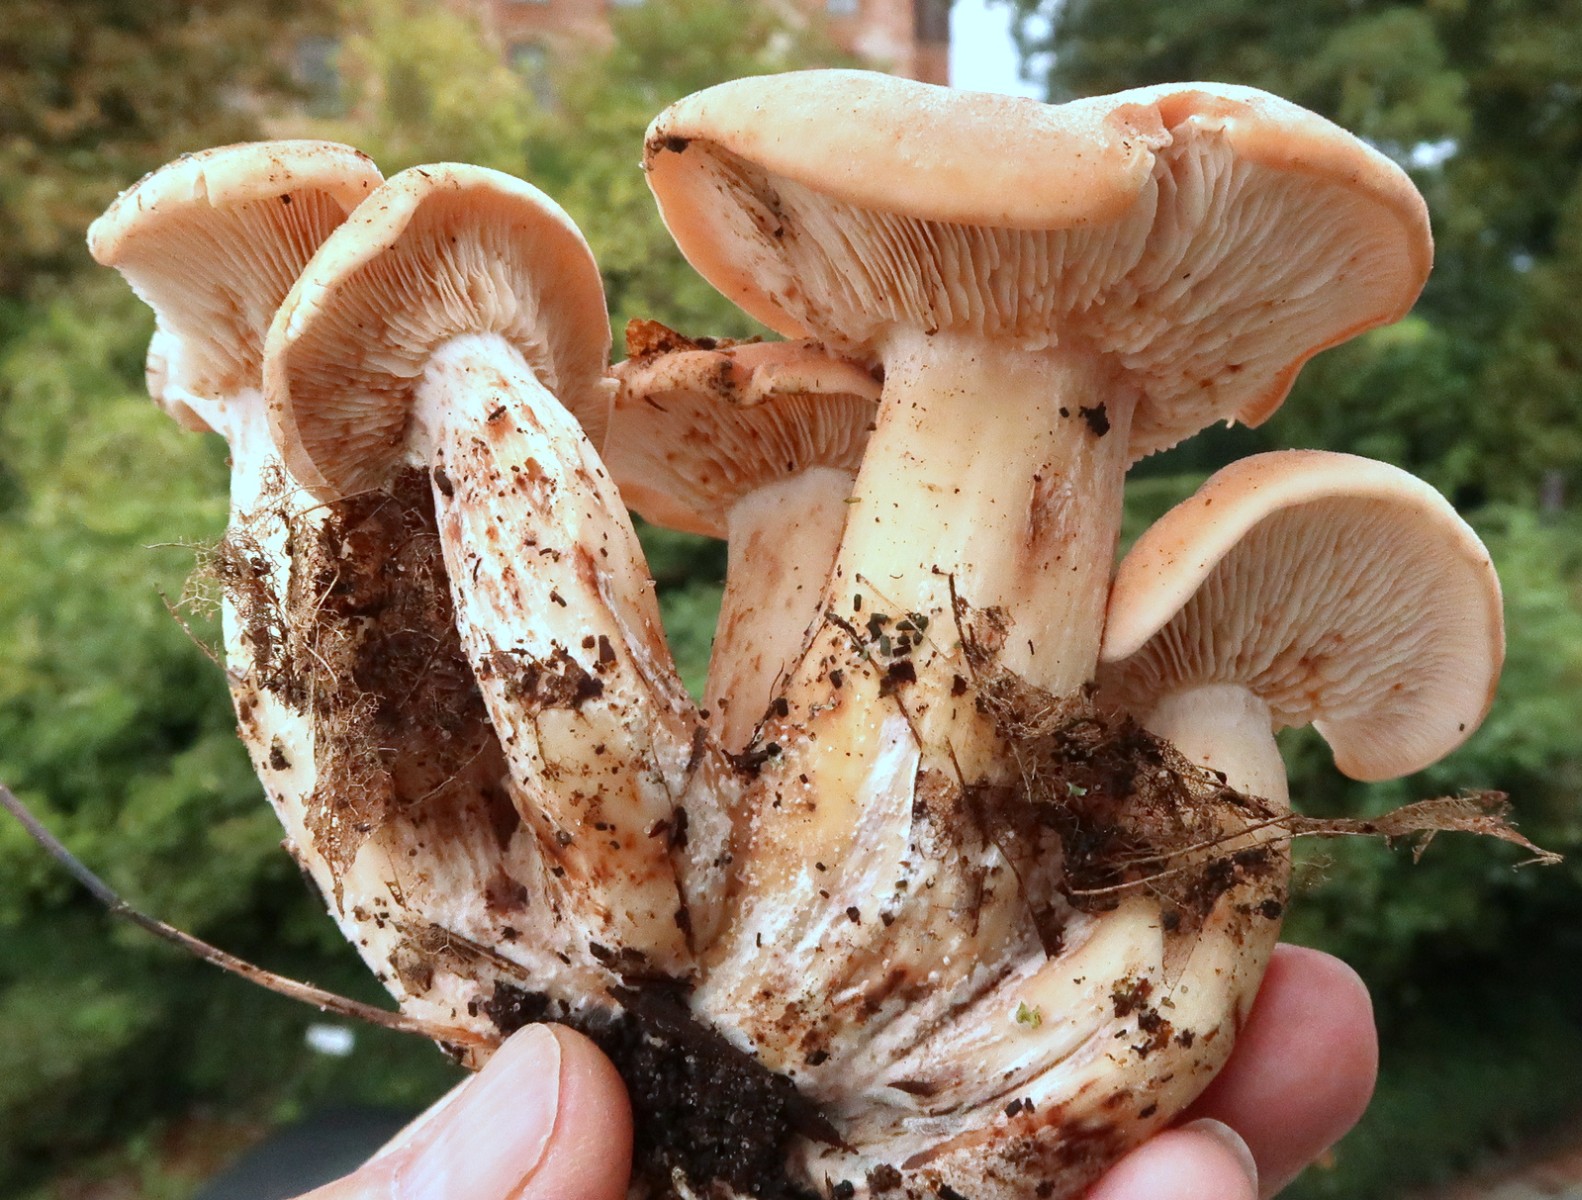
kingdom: Fungi
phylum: Basidiomycota
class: Agaricomycetes
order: Agaricales
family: Entolomataceae
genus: Clitopilus
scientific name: Clitopilus geminus
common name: kødfarvet troldhat
